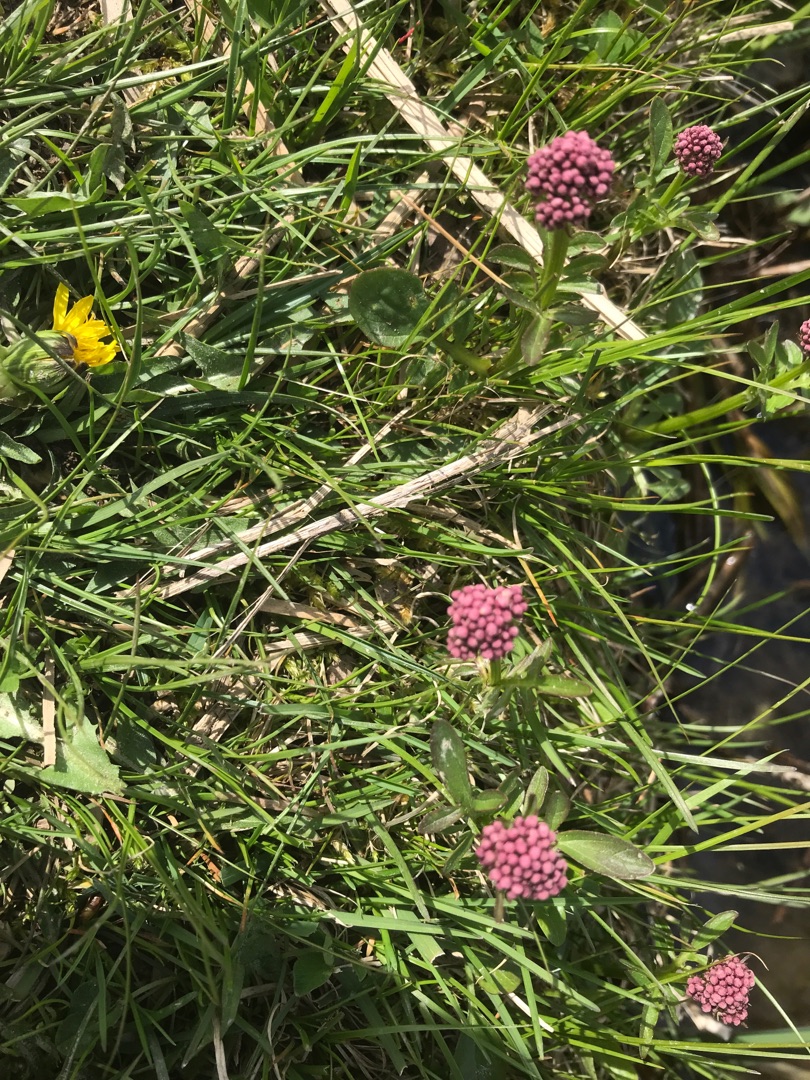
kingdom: Plantae
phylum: Tracheophyta
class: Magnoliopsida
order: Dipsacales
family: Caprifoliaceae
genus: Valeriana
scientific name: Valeriana dioica
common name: Tvebo baldrian
